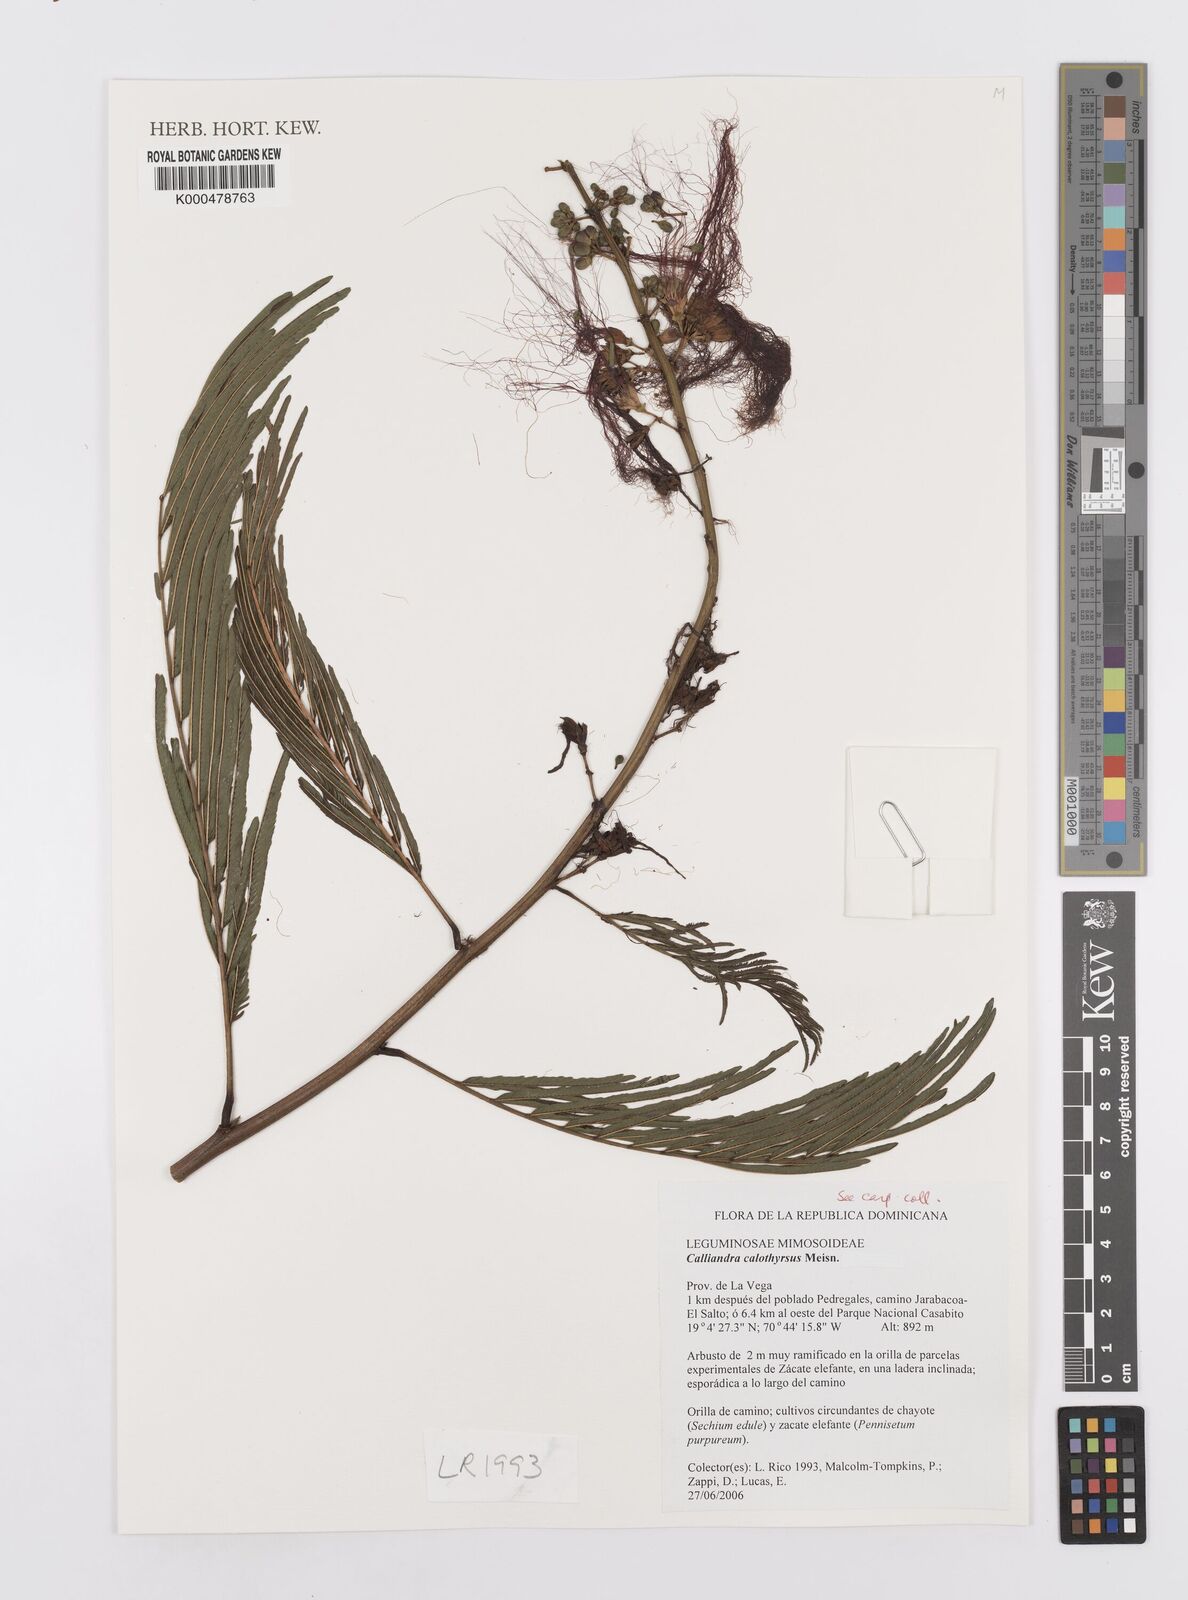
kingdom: Plantae
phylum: Tracheophyta
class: Magnoliopsida
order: Fabales
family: Fabaceae
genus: Calliandra
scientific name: Calliandra houstoniana
